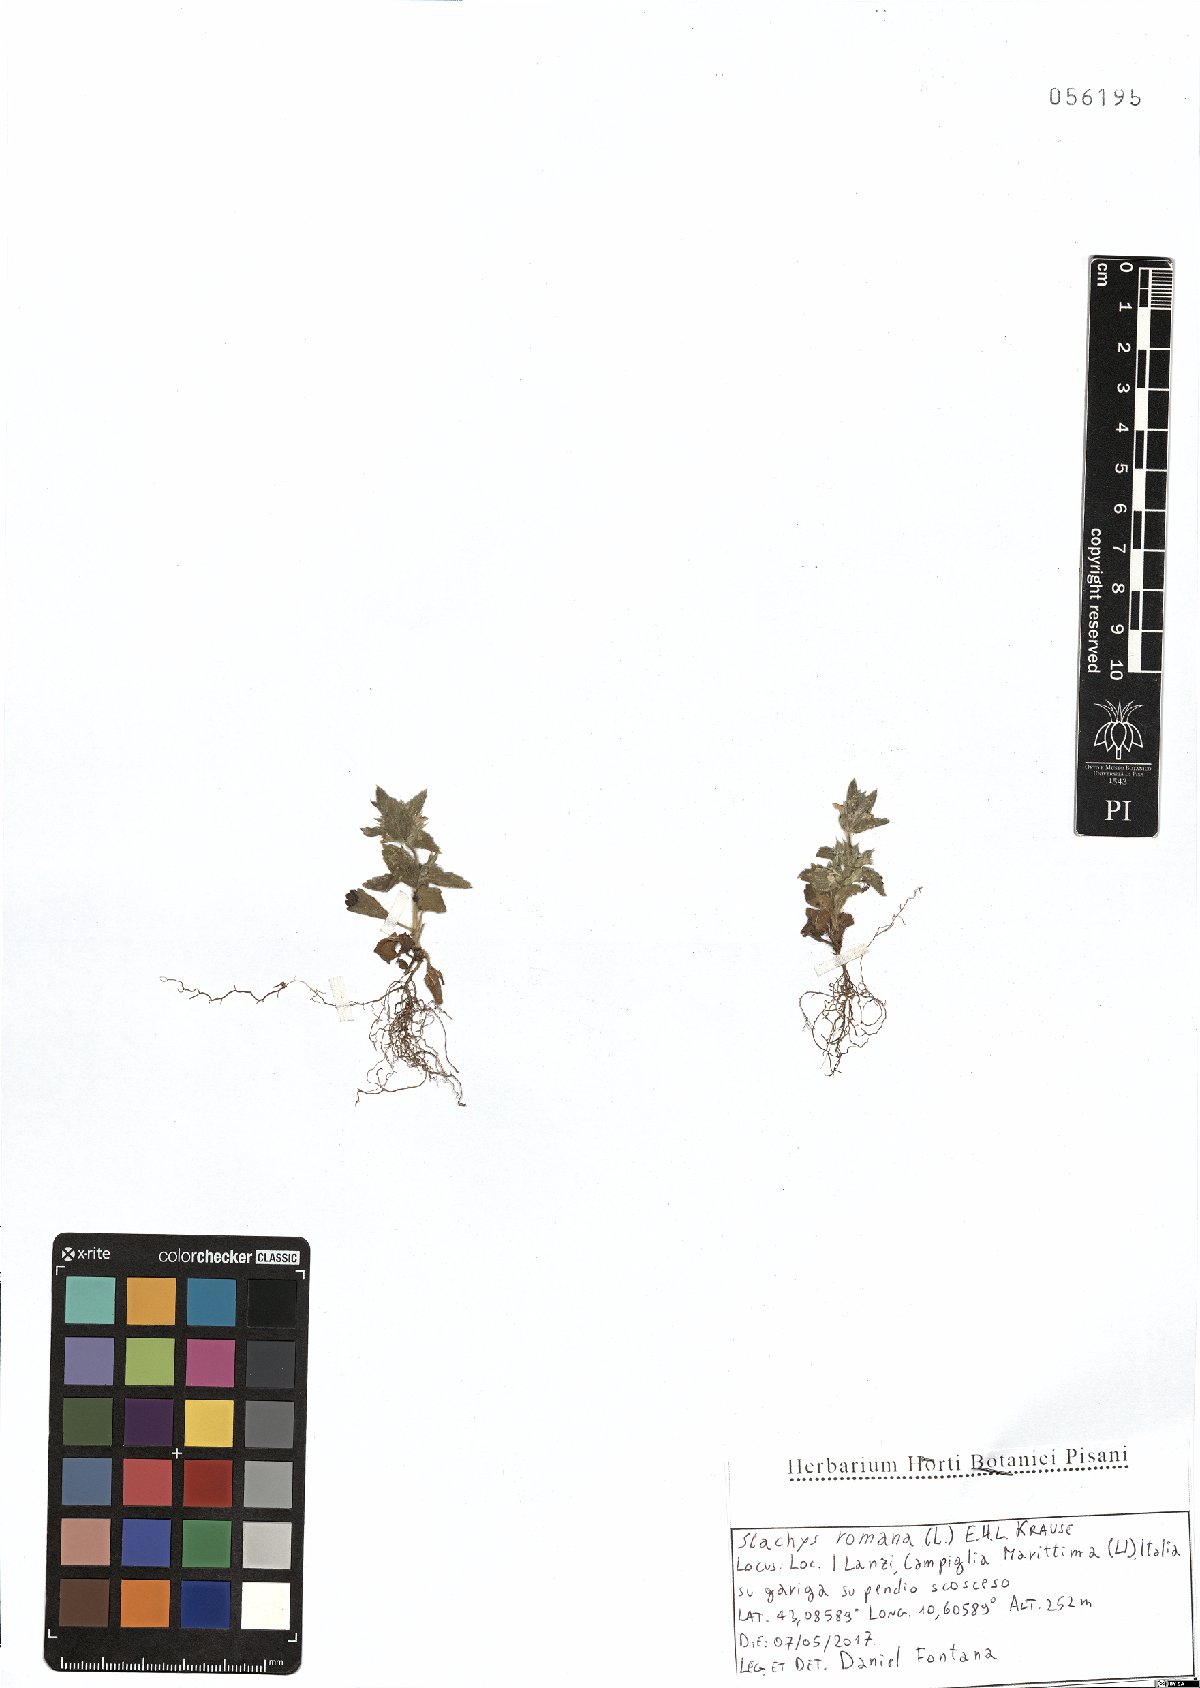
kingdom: Plantae
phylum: Tracheophyta
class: Magnoliopsida
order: Lamiales
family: Lamiaceae
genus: Sideritis
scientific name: Sideritis romana
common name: Simplebeak ironwort
